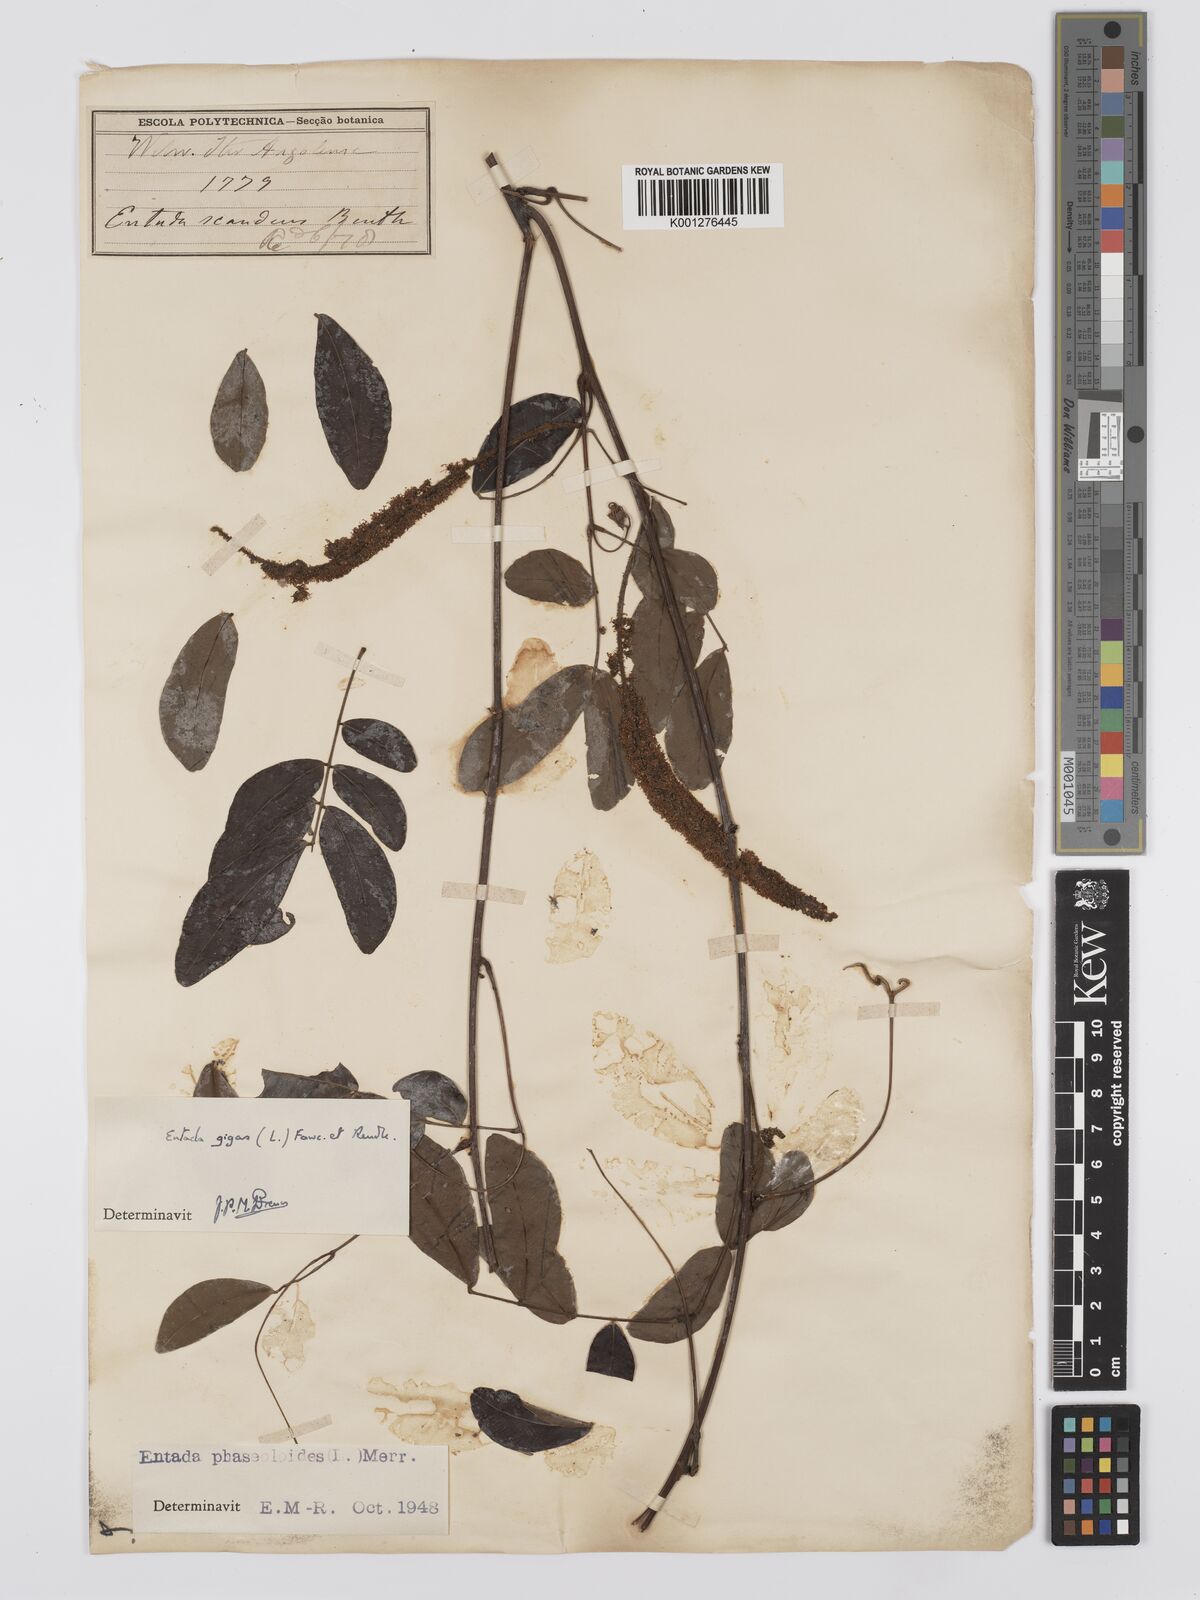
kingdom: Plantae
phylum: Tracheophyta
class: Magnoliopsida
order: Fabales
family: Fabaceae
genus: Entada
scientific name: Entada gigas
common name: Nicker-bean
